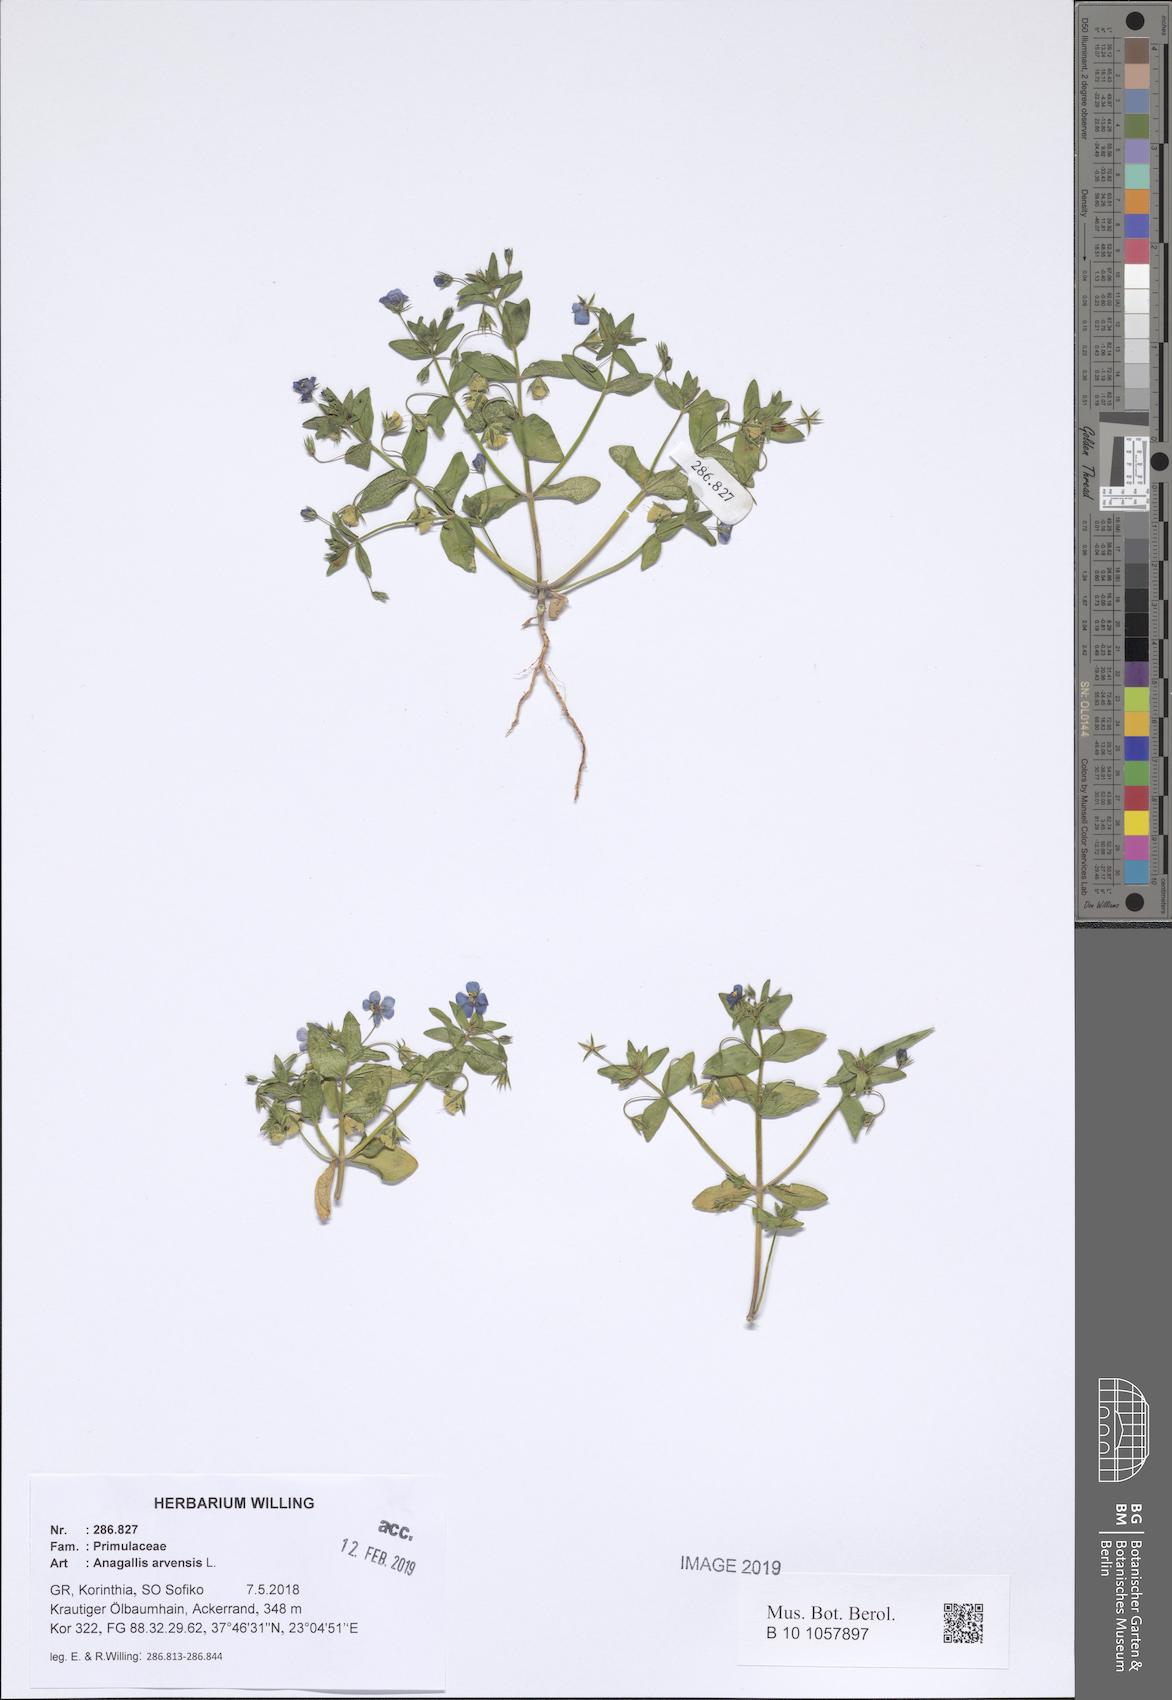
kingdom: Plantae
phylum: Tracheophyta
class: Magnoliopsida
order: Ericales
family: Primulaceae
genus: Lysimachia
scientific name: Lysimachia arvensis
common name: Scarlet pimpernel
